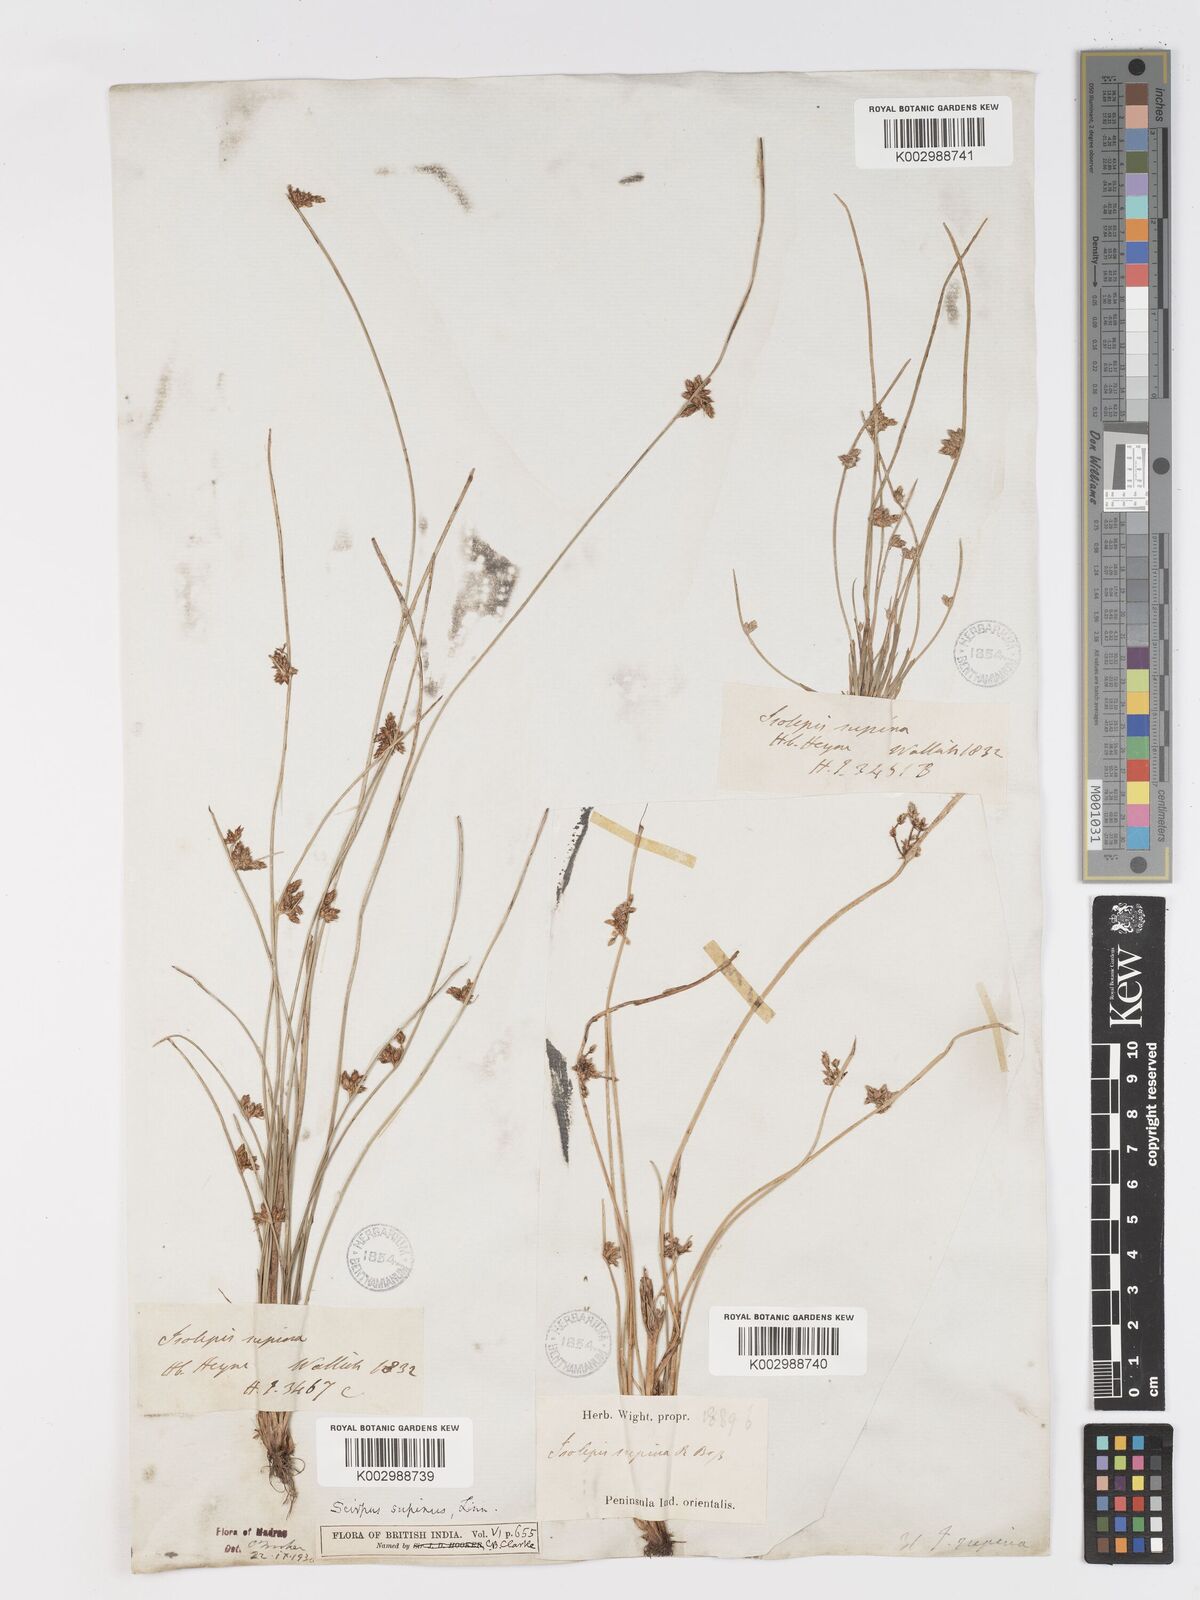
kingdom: Plantae
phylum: Tracheophyta
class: Liliopsida
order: Poales
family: Cyperaceae
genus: Schoenoplectiella
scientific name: Schoenoplectiella lateriflora
